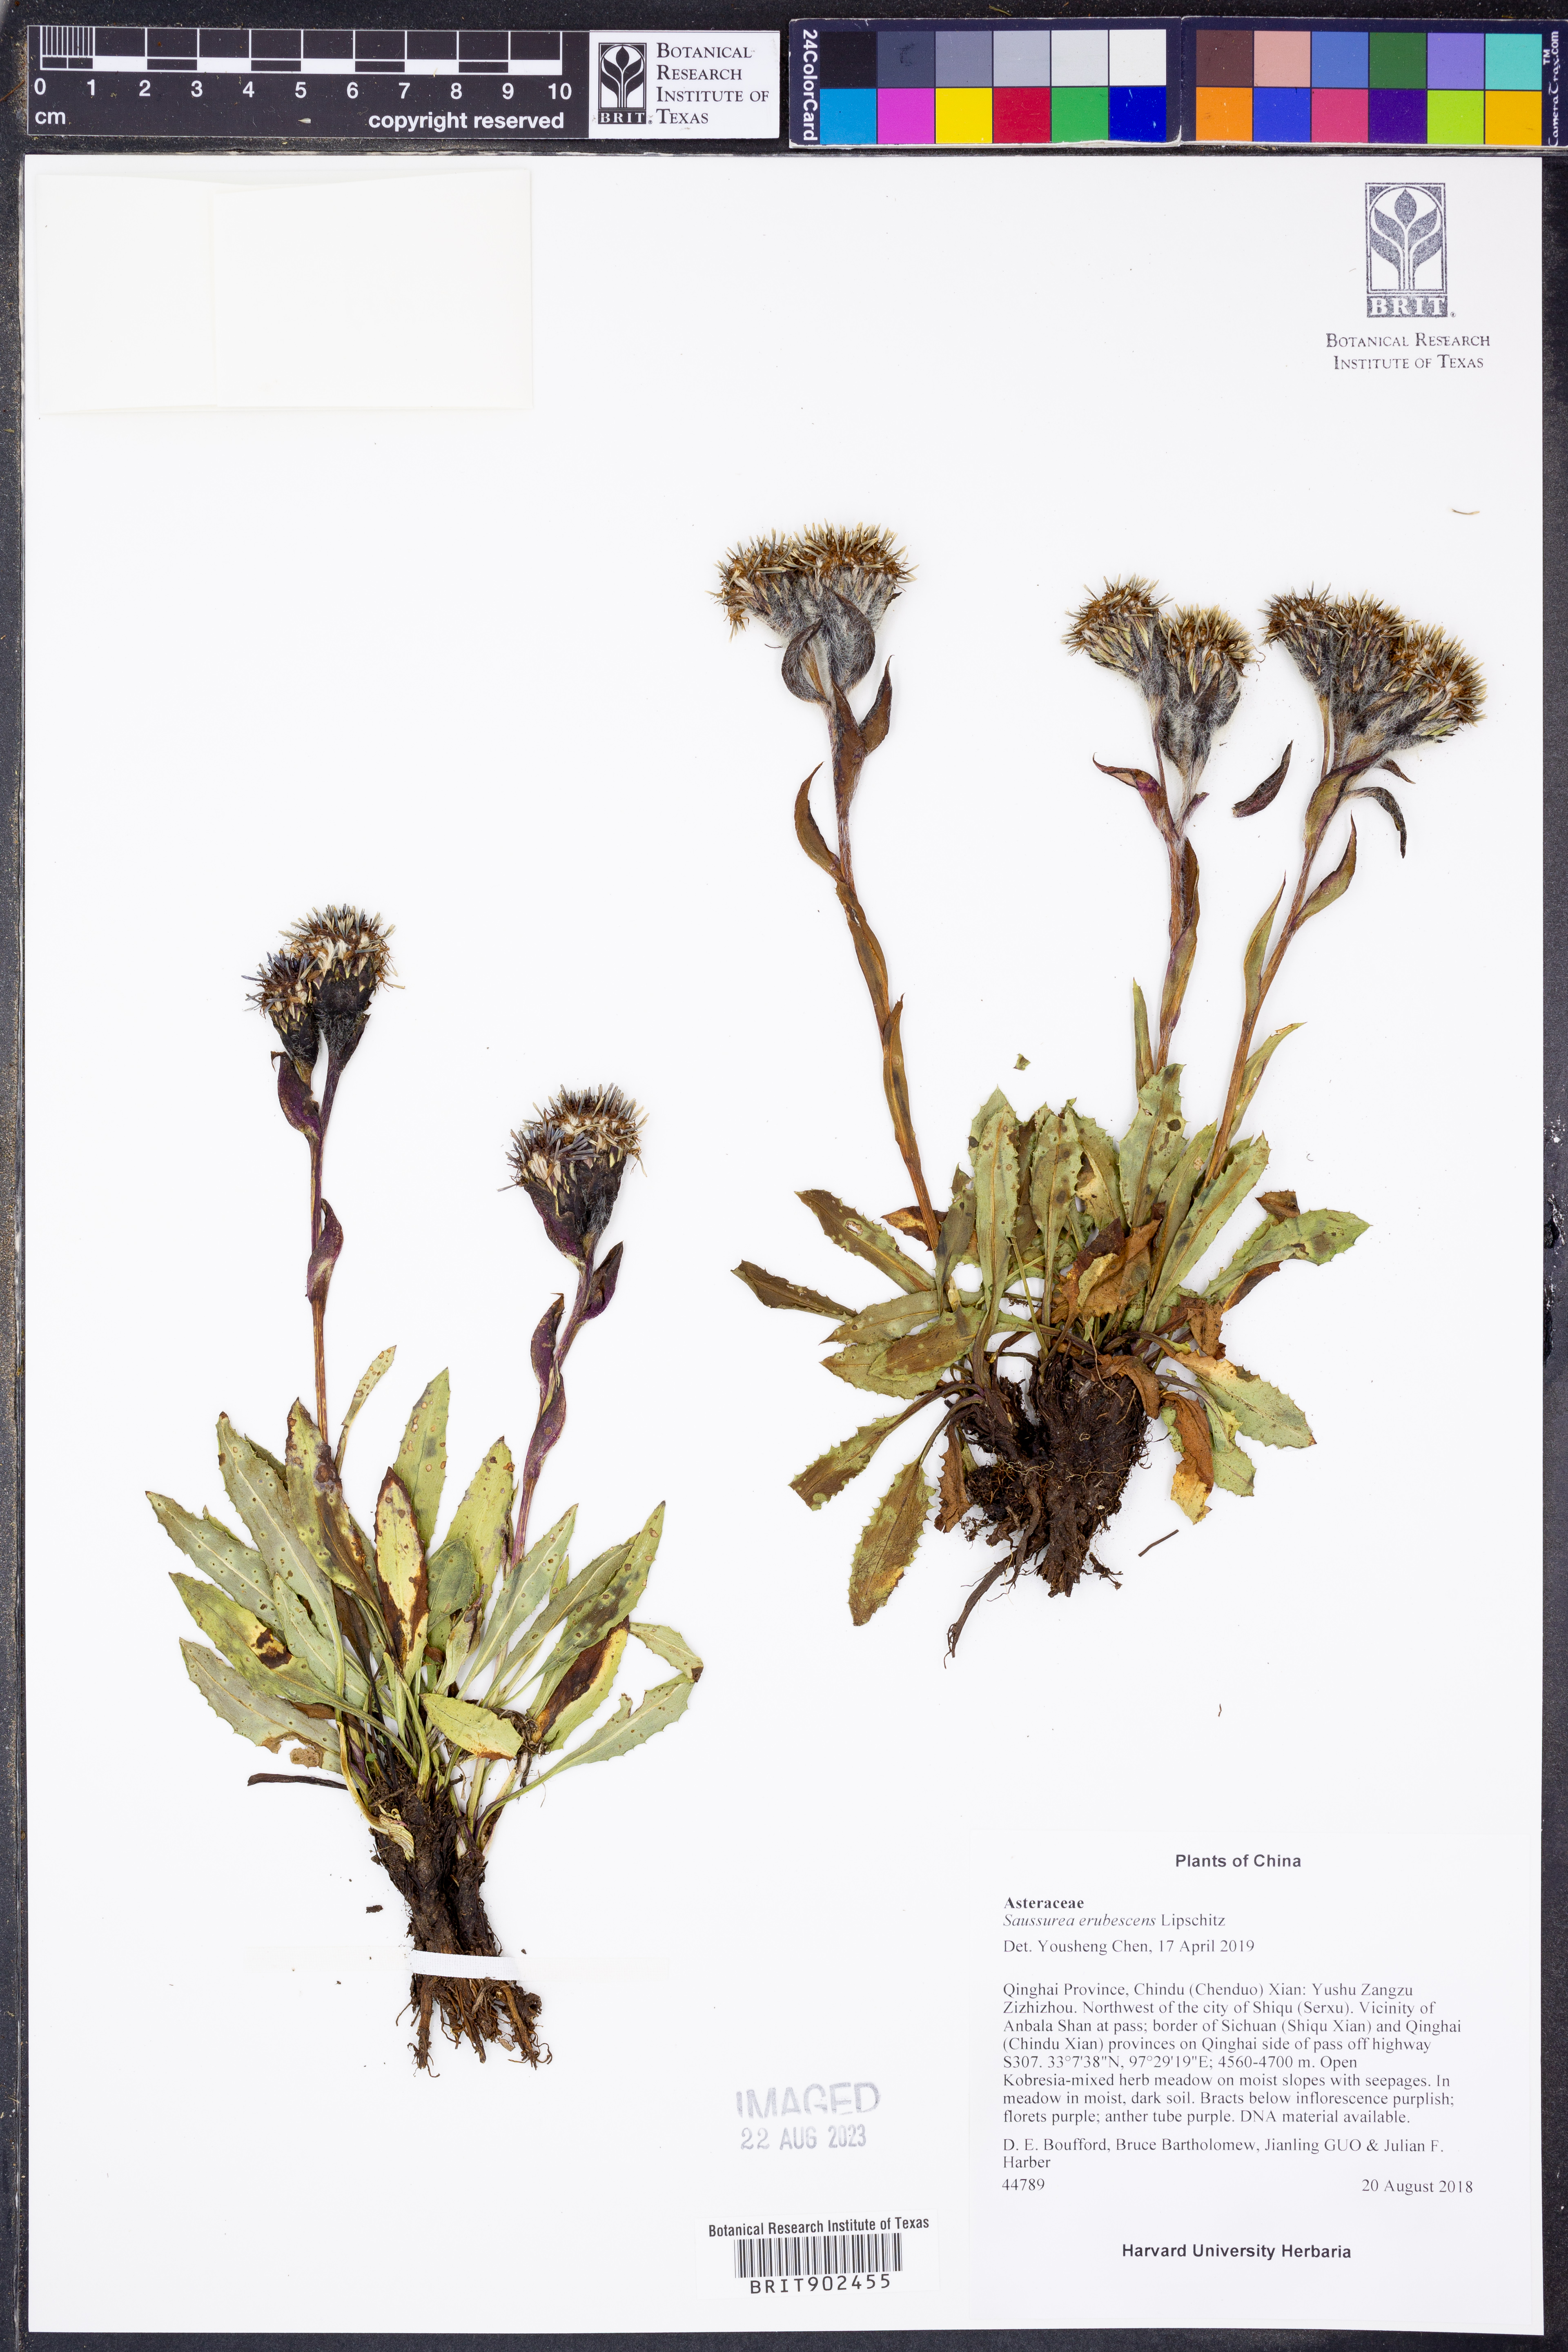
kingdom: Plantae
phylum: Tracheophyta
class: Magnoliopsida
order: Asterales
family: Asteraceae
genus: Saussurea
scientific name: Saussurea
